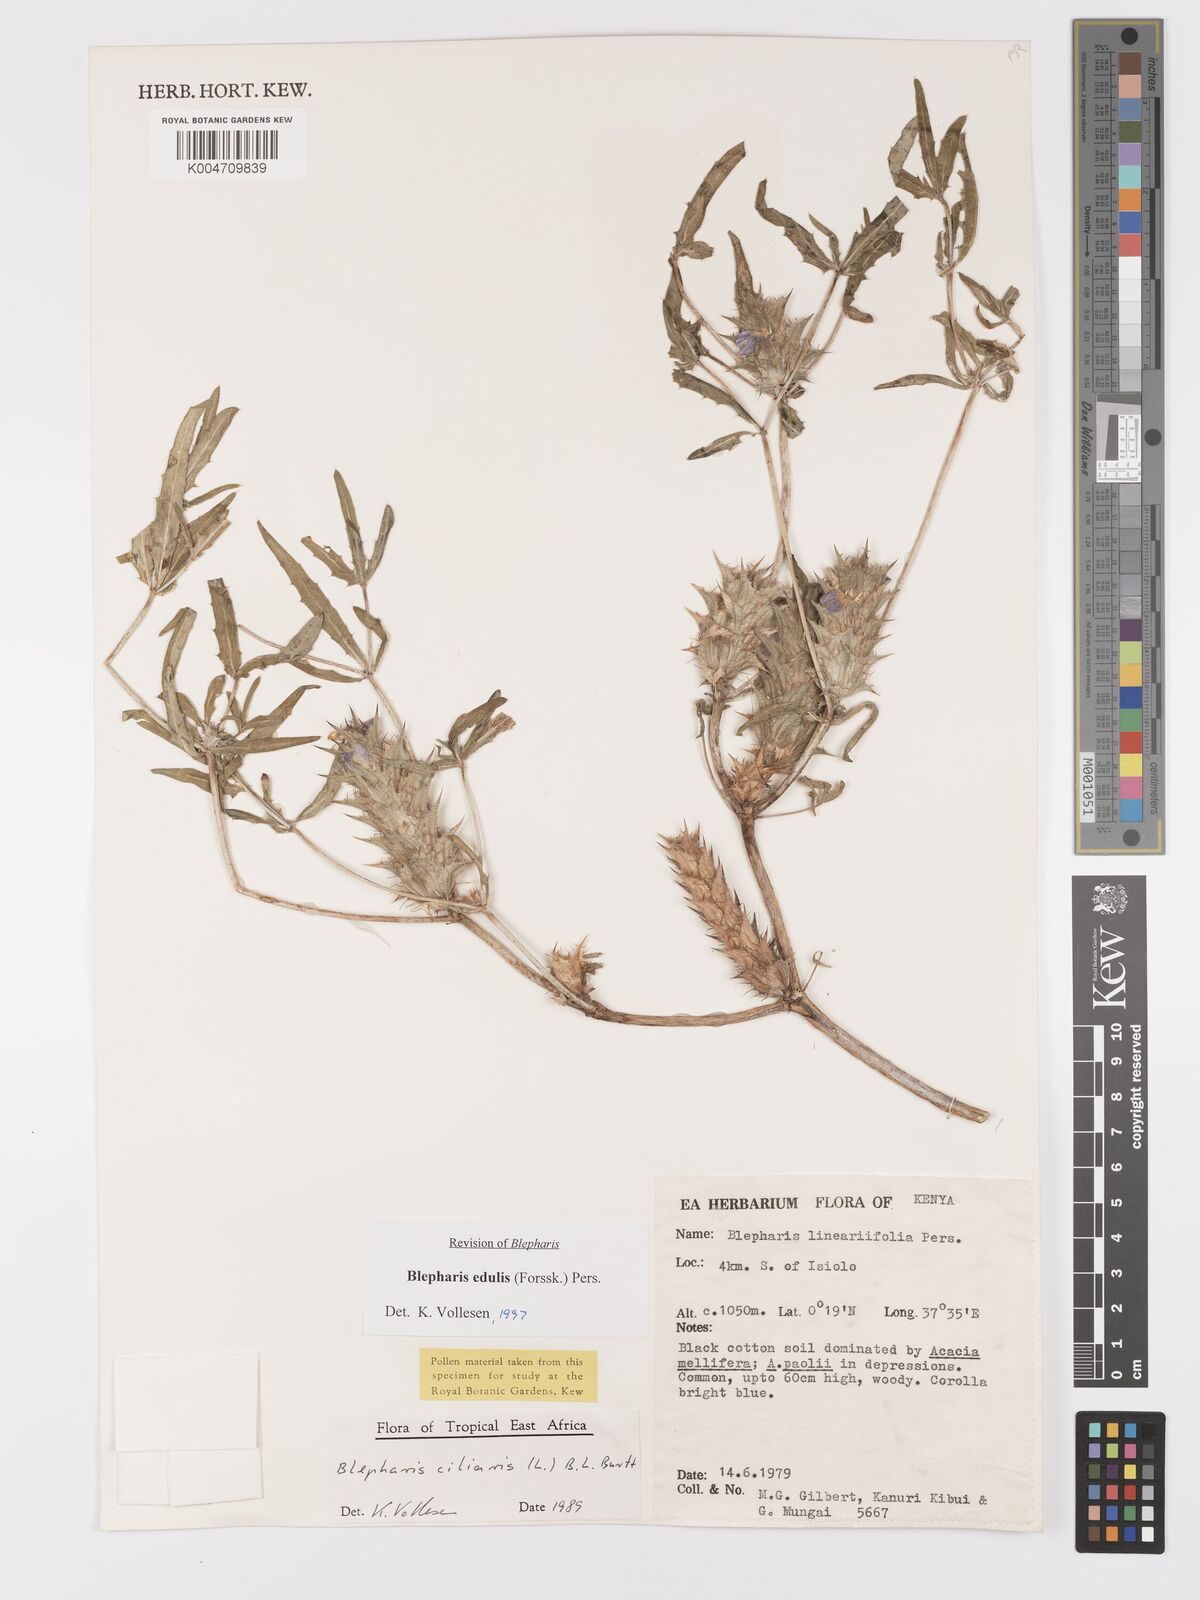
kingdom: Plantae
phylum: Tracheophyta
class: Magnoliopsida
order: Lamiales
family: Acanthaceae
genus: Blepharis
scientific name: Blepharis edulis
